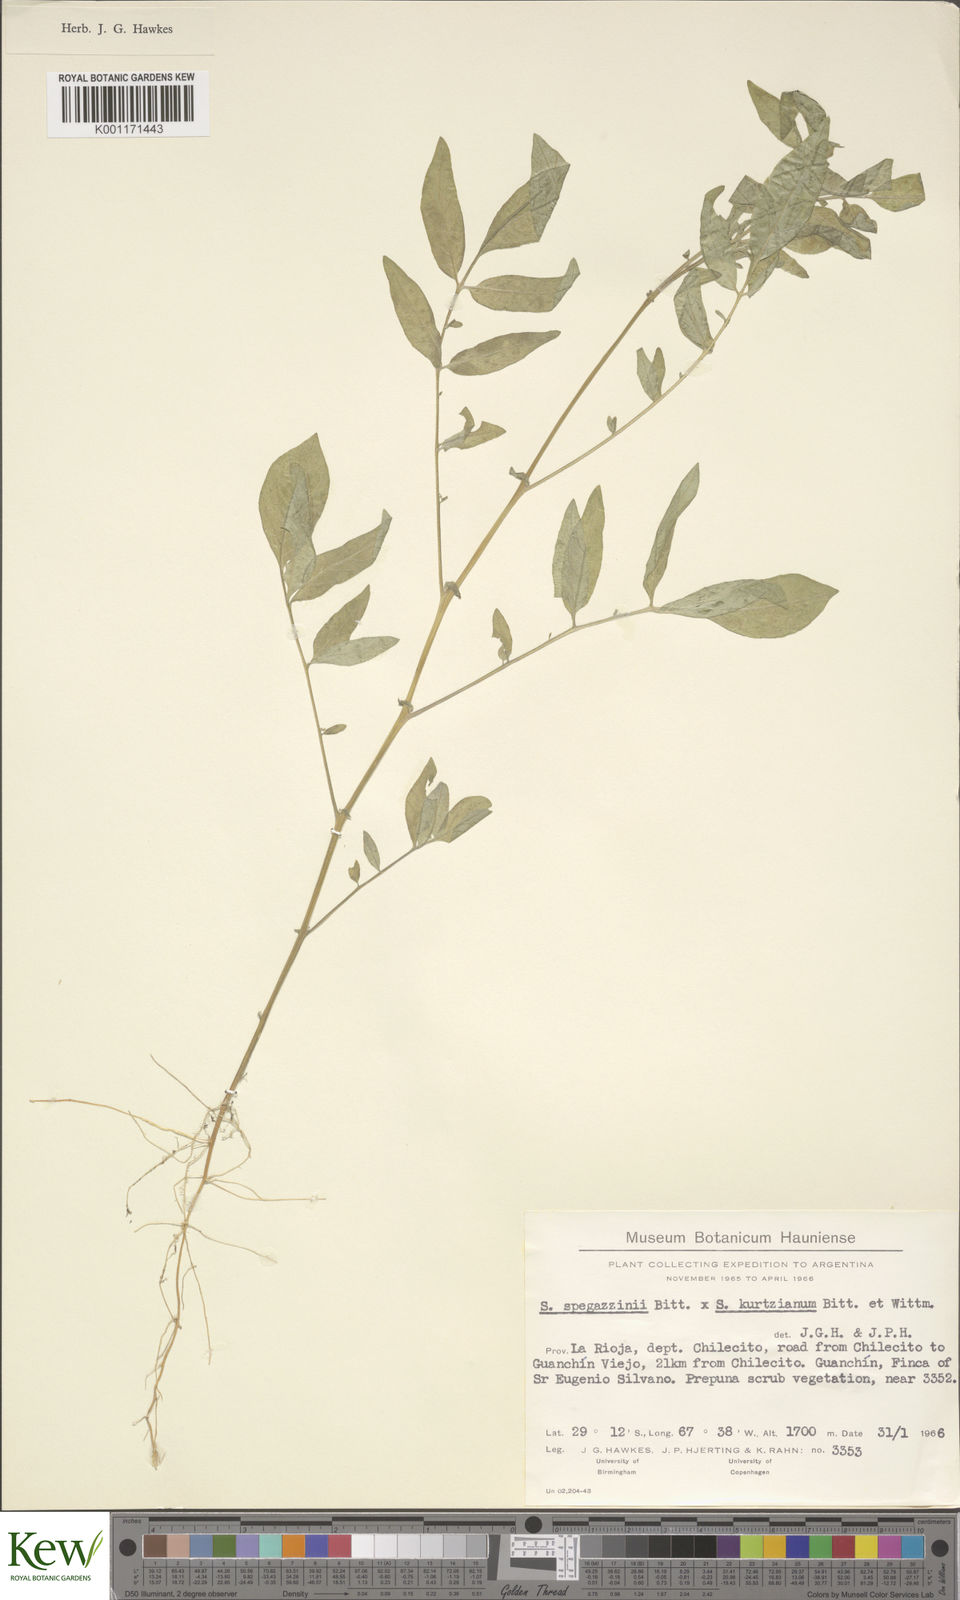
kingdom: Plantae
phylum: Tracheophyta
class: Magnoliopsida
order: Solanales
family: Solanaceae
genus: Solanum
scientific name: Solanum brevicaule
